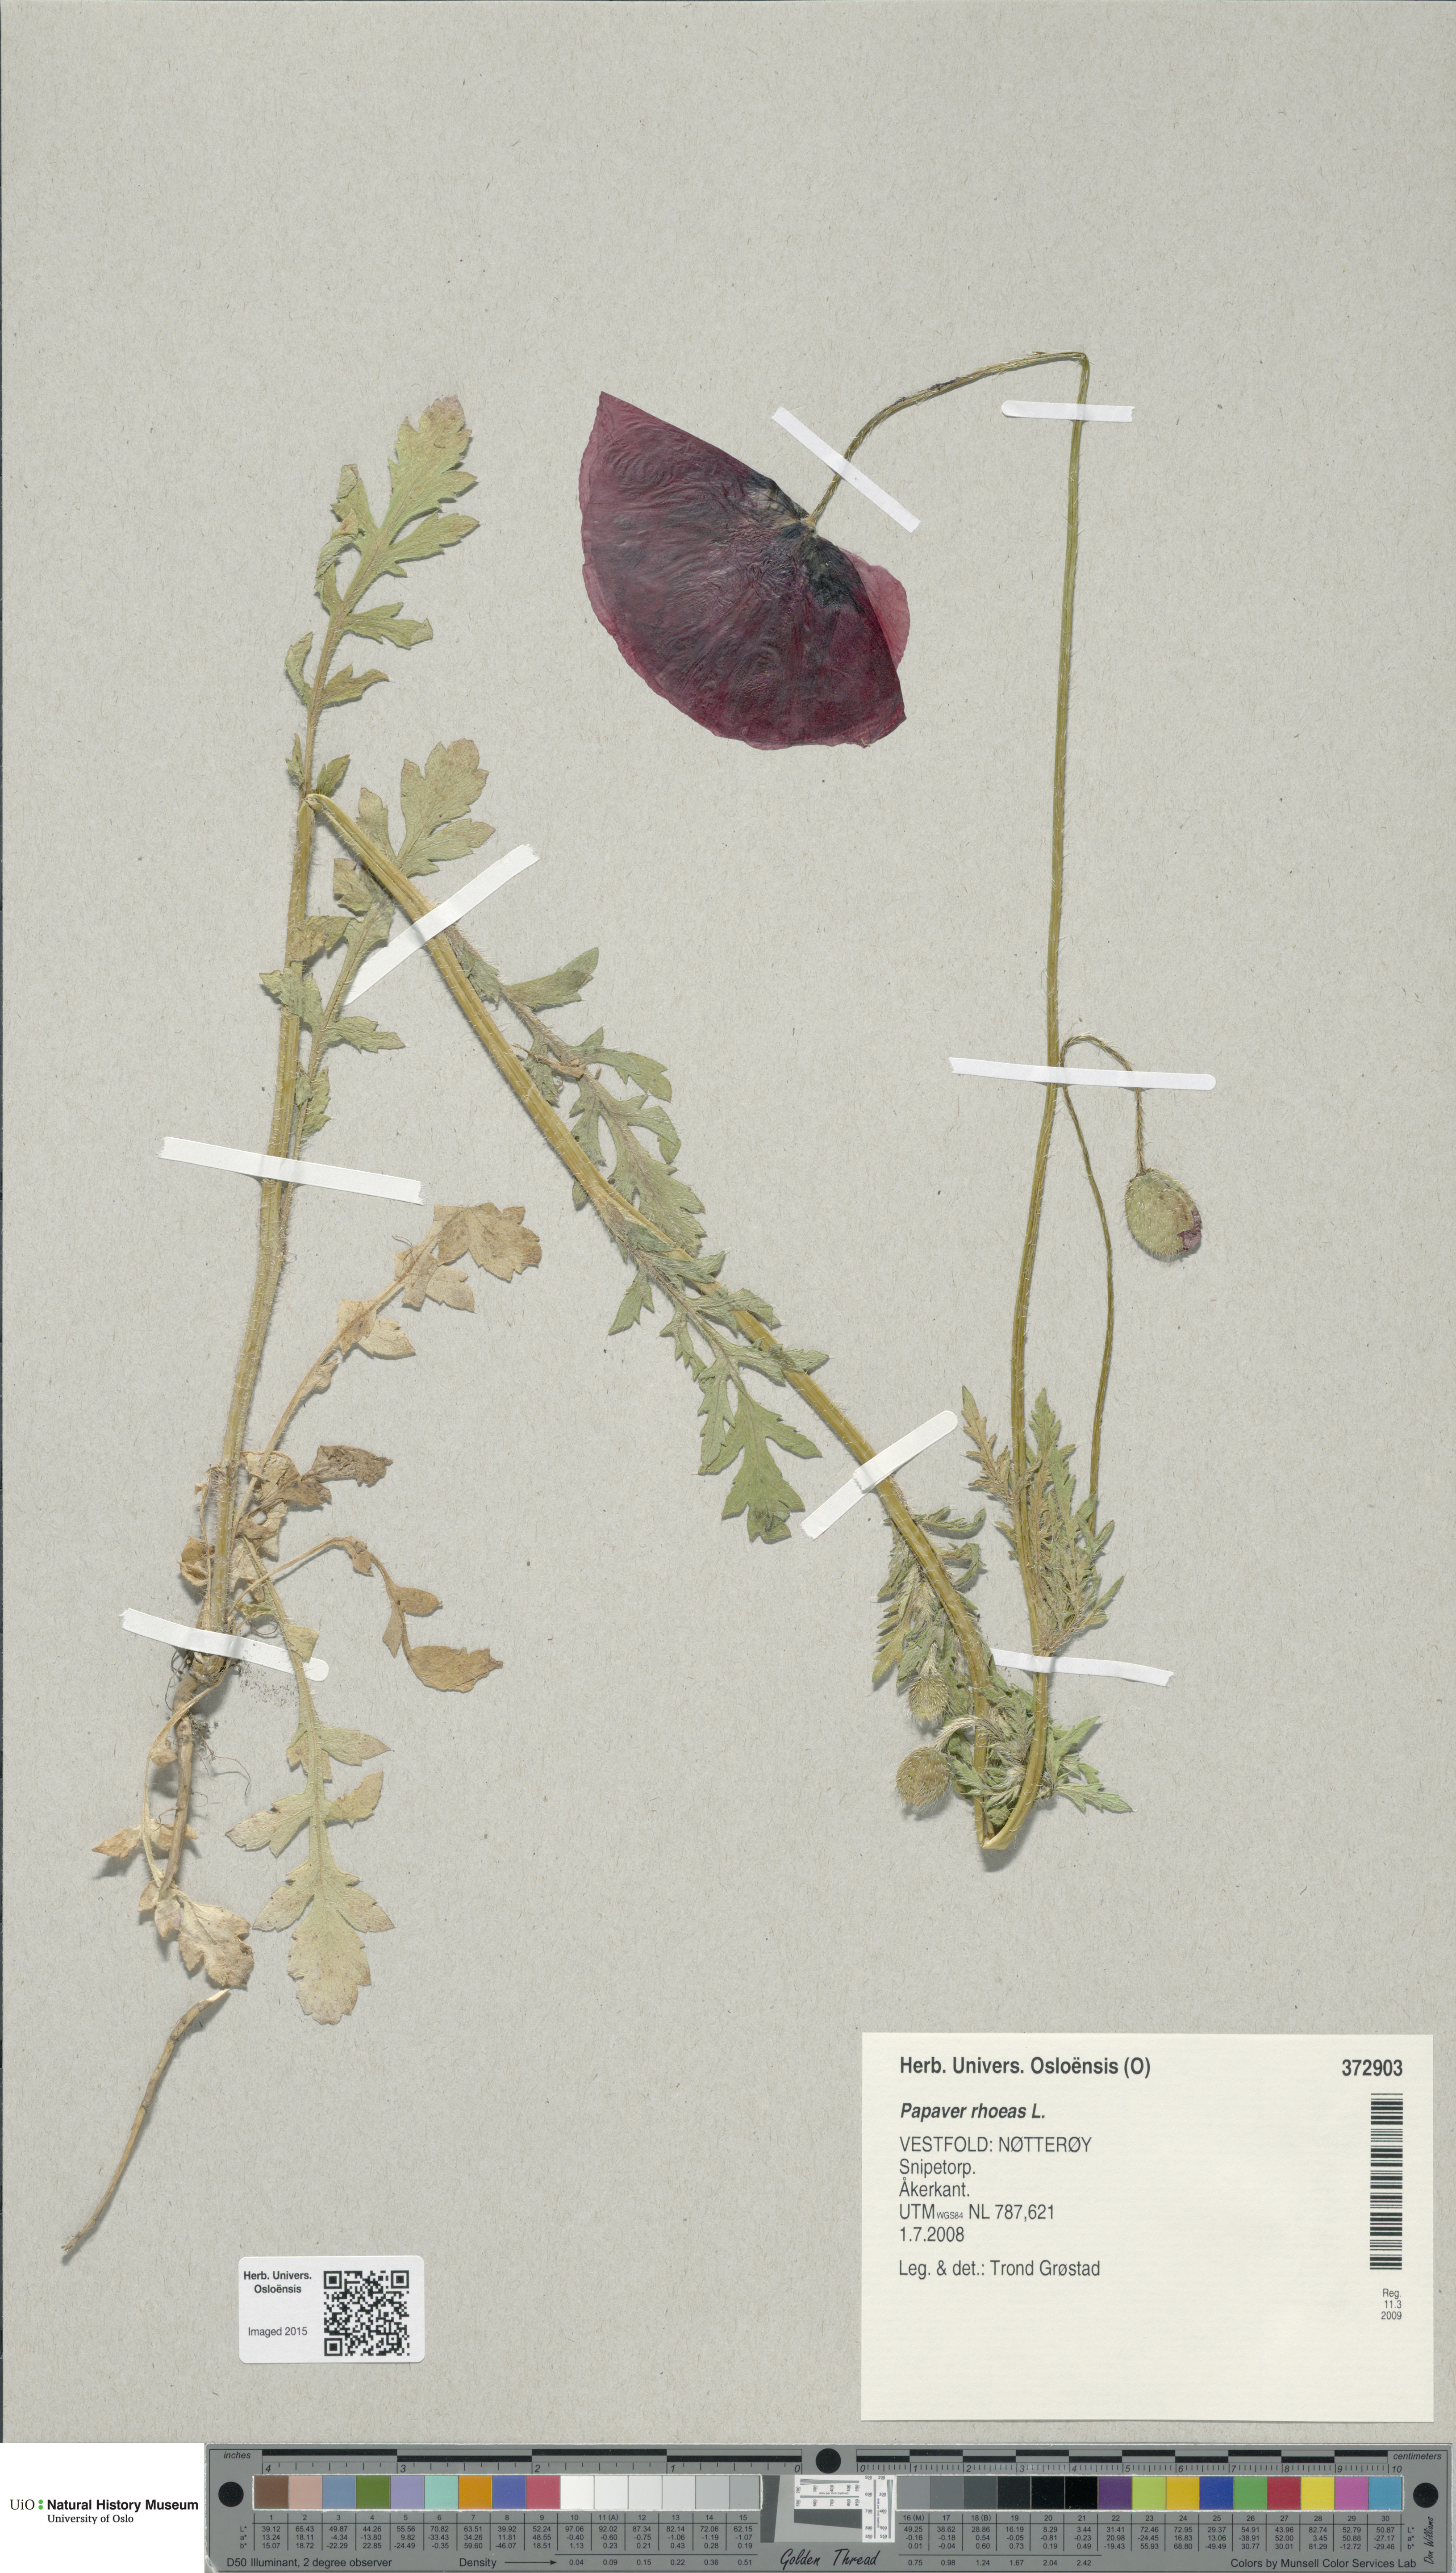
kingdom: Plantae
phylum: Tracheophyta
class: Magnoliopsida
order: Ranunculales
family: Papaveraceae
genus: Papaver
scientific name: Papaver rhoeas
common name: Corn poppy
